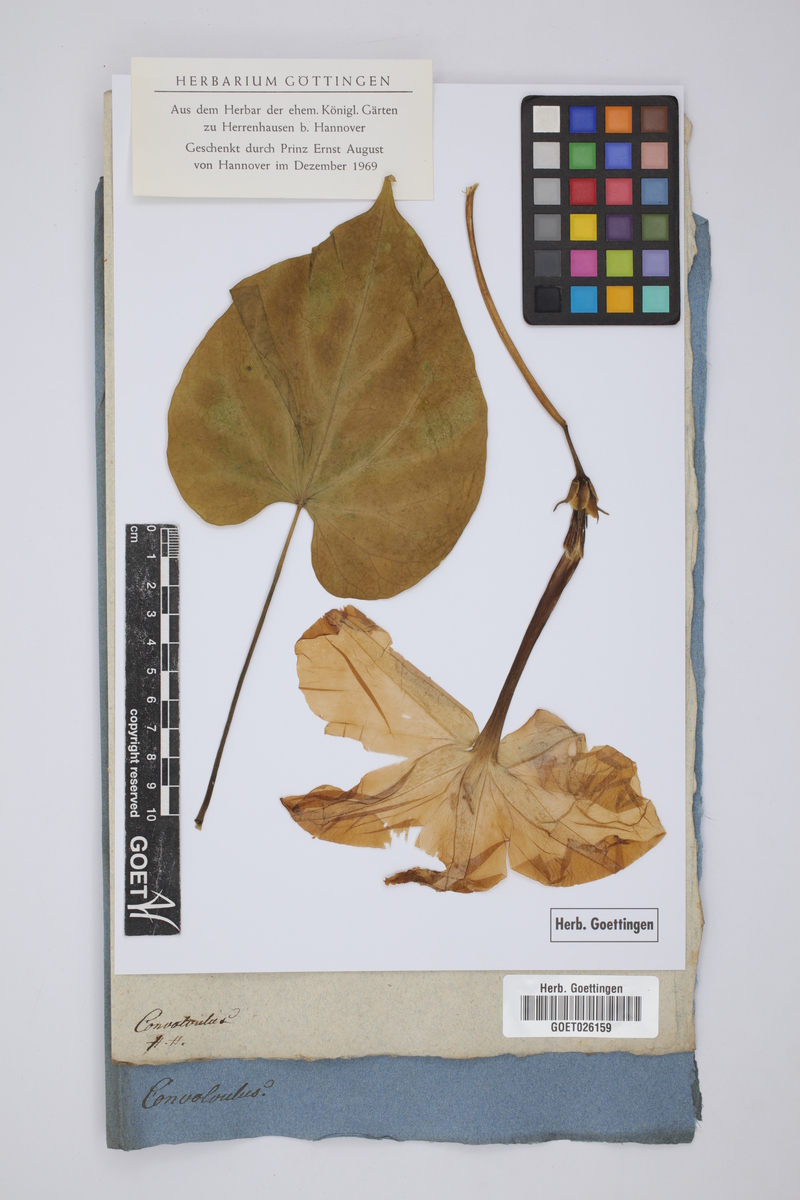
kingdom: Plantae
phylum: Tracheophyta
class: Magnoliopsida
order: Solanales
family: Convolvulaceae
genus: Convolvulus
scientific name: Convolvulus
